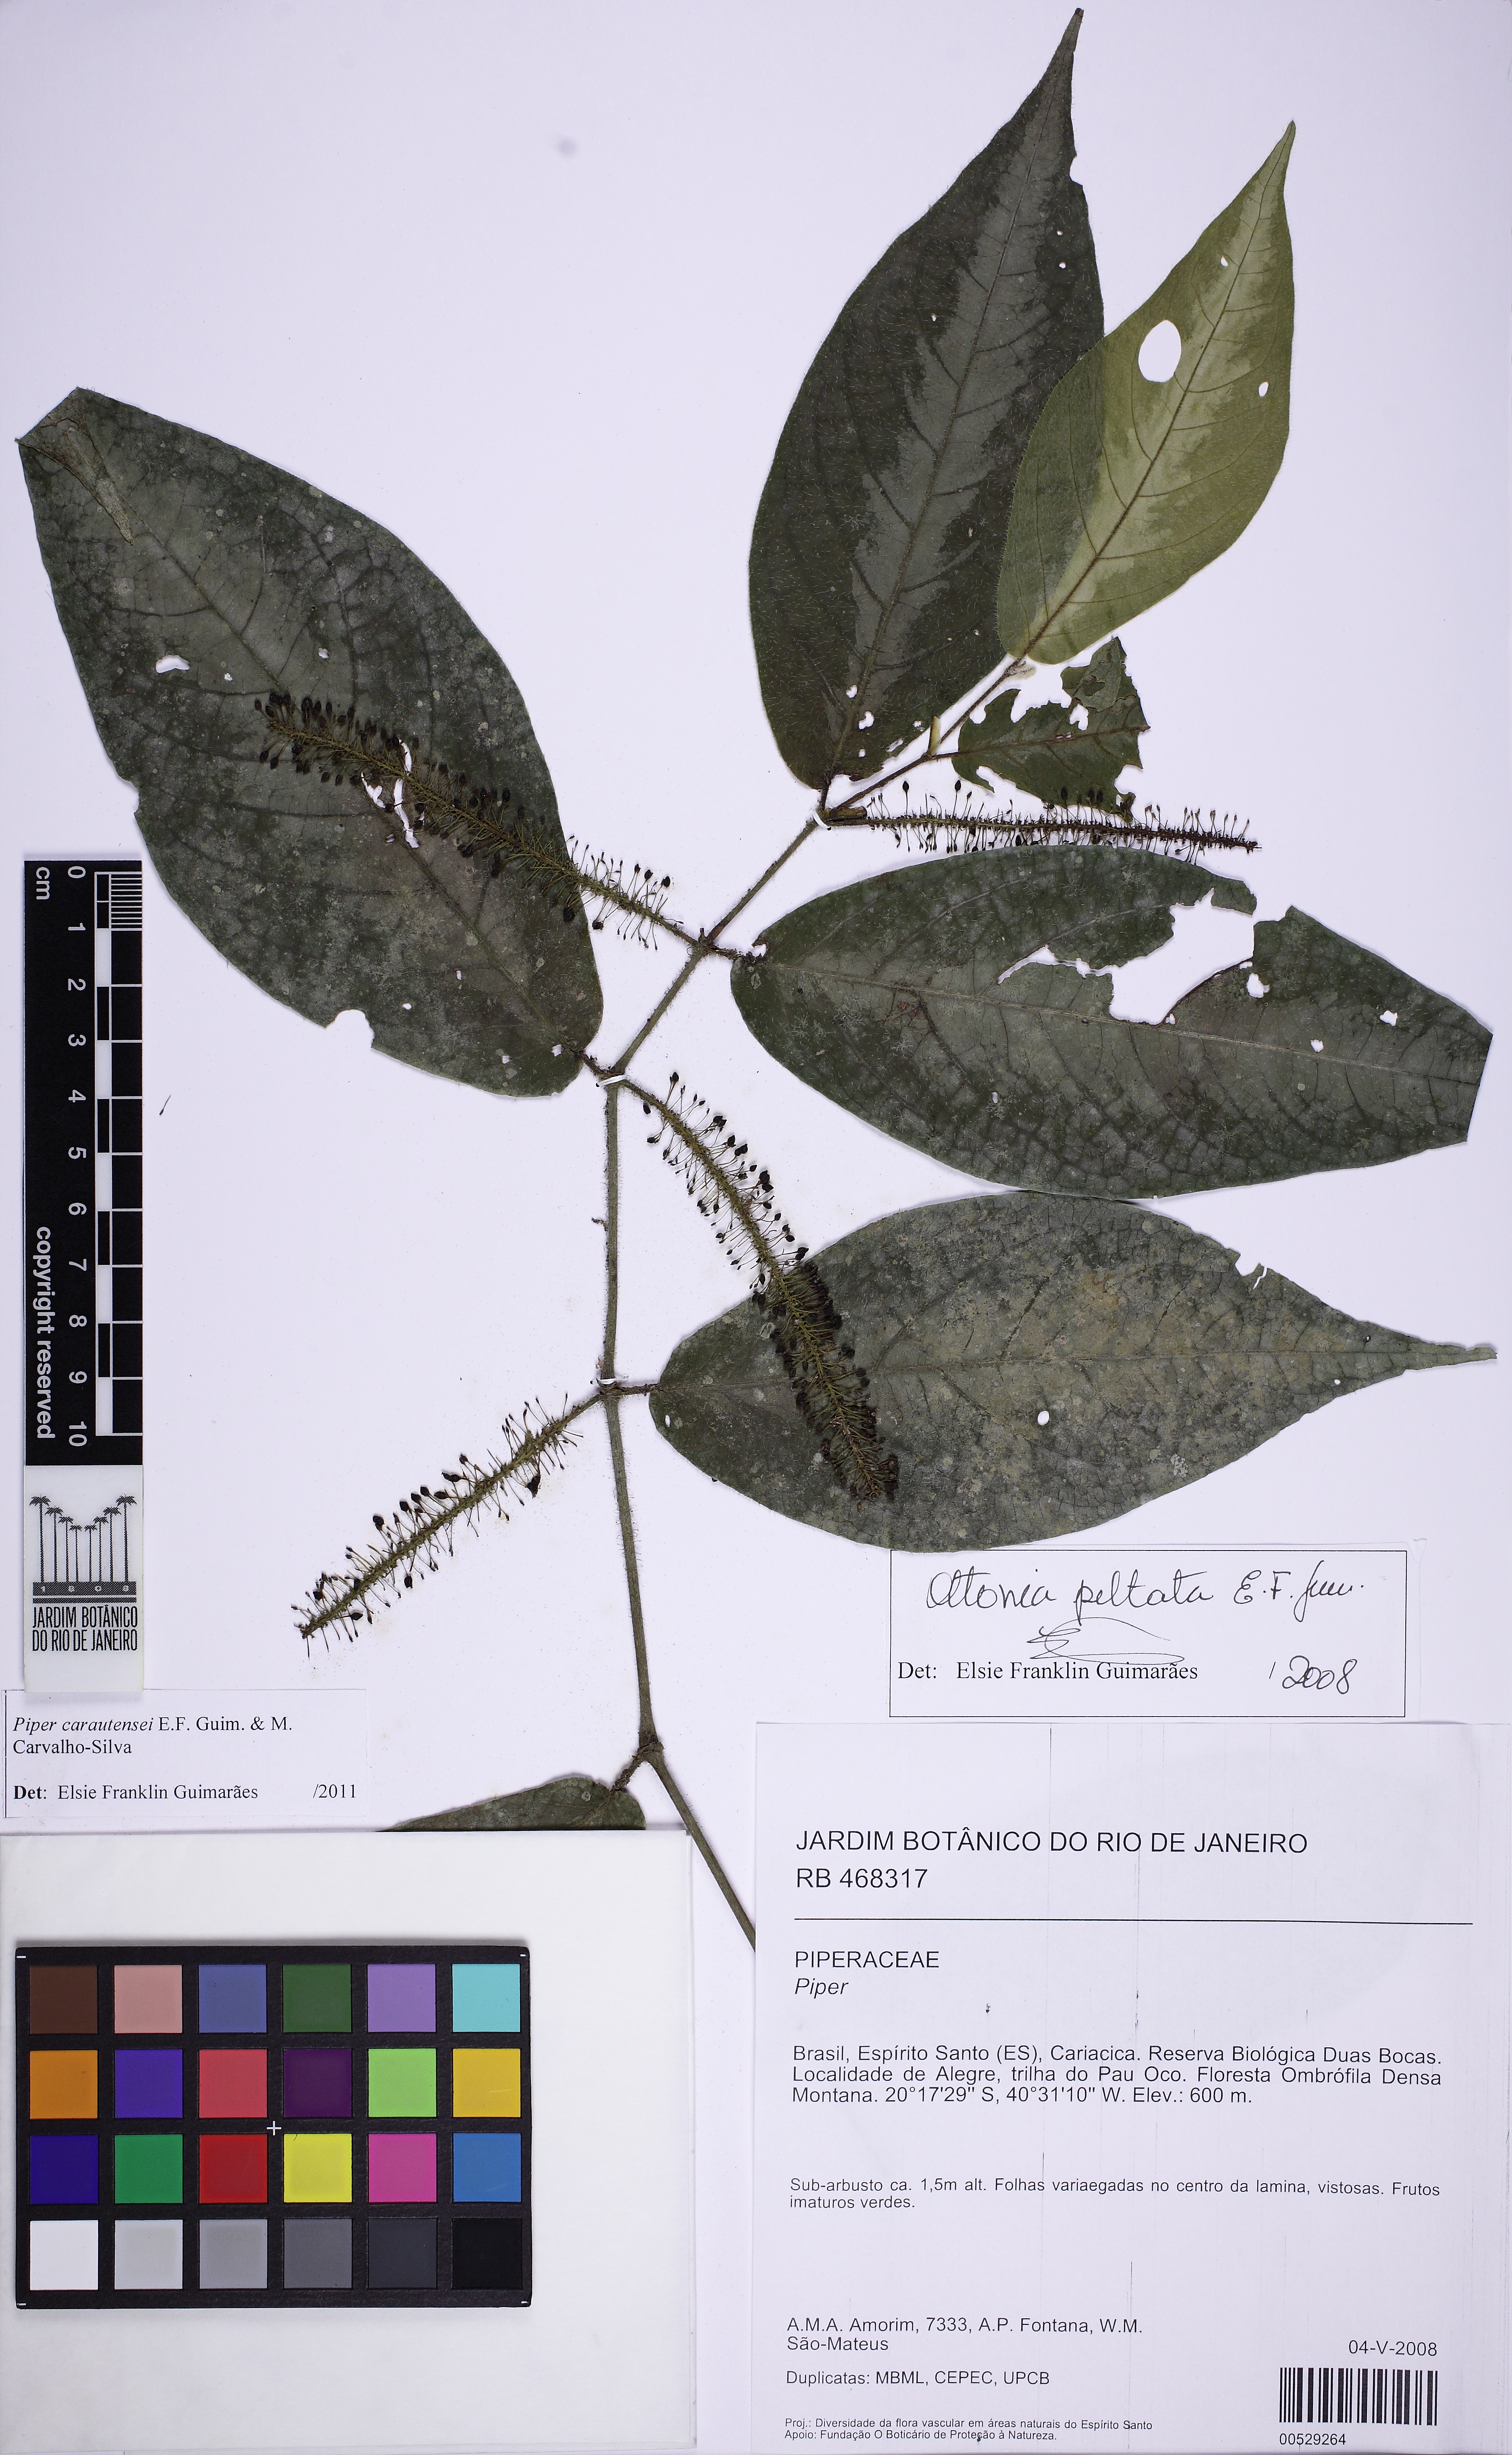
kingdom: Plantae
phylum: Tracheophyta
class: Magnoliopsida
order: Piperales
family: Piperaceae
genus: Piper
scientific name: Piper carautensei
